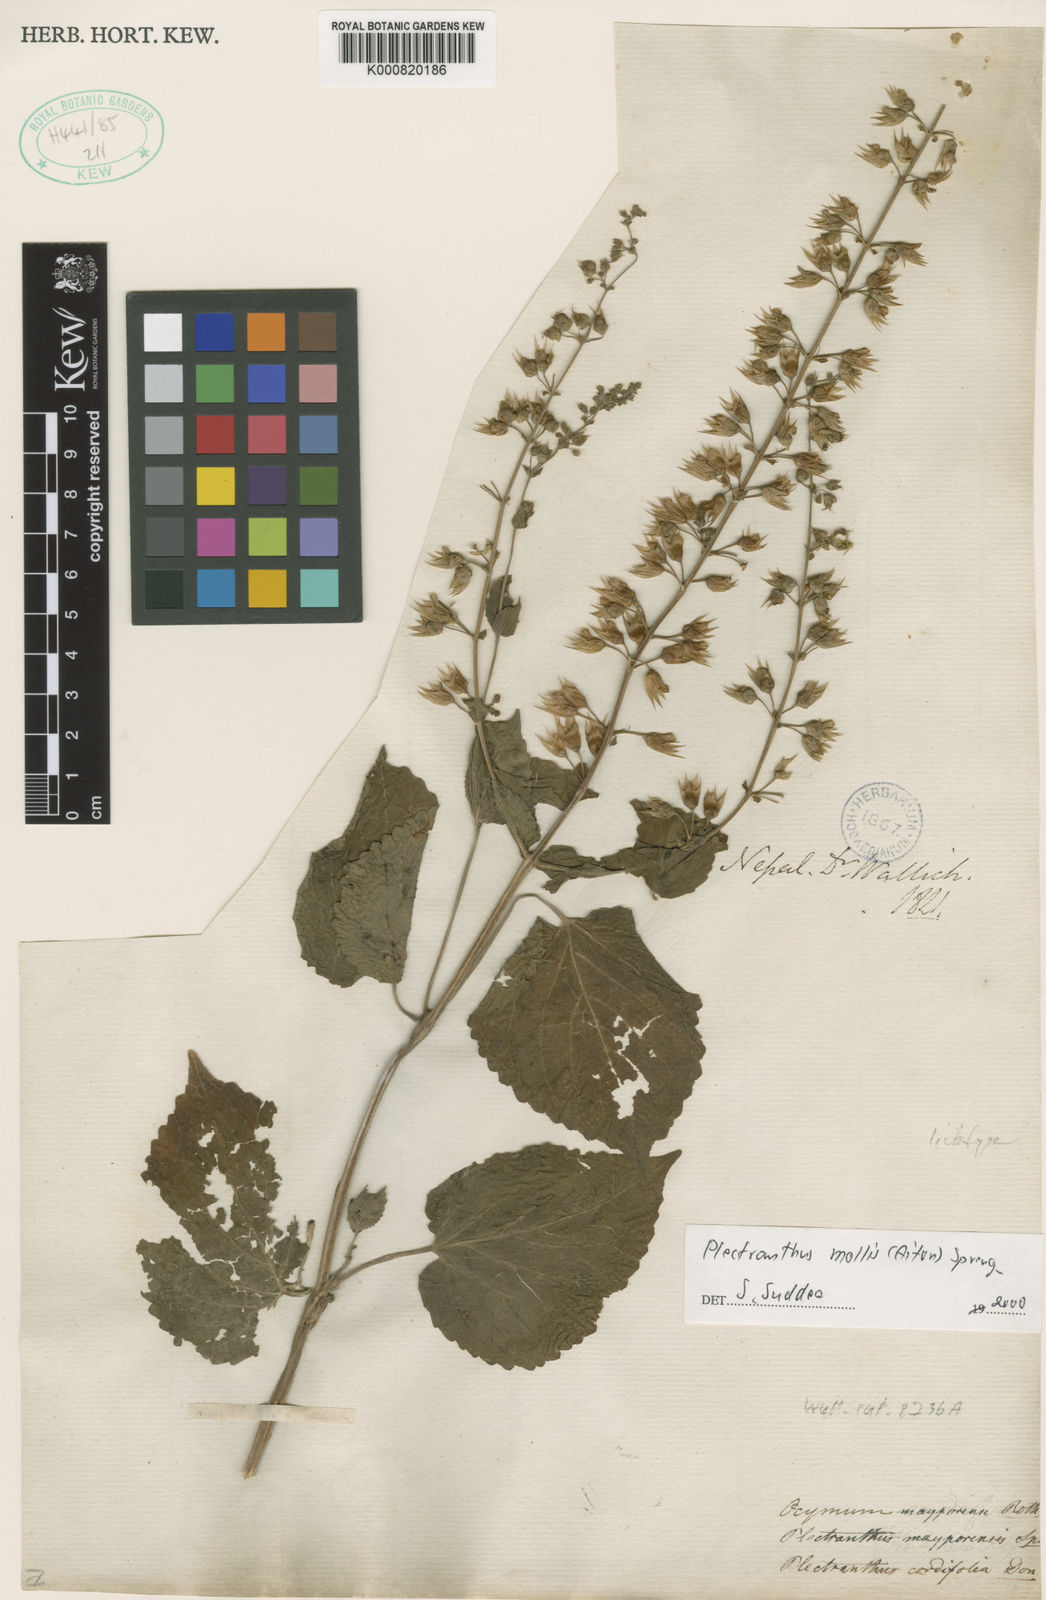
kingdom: Plantae
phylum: Tracheophyta
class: Magnoliopsida
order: Lamiales
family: Lamiaceae
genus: Equilabium
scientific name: Equilabium molle
